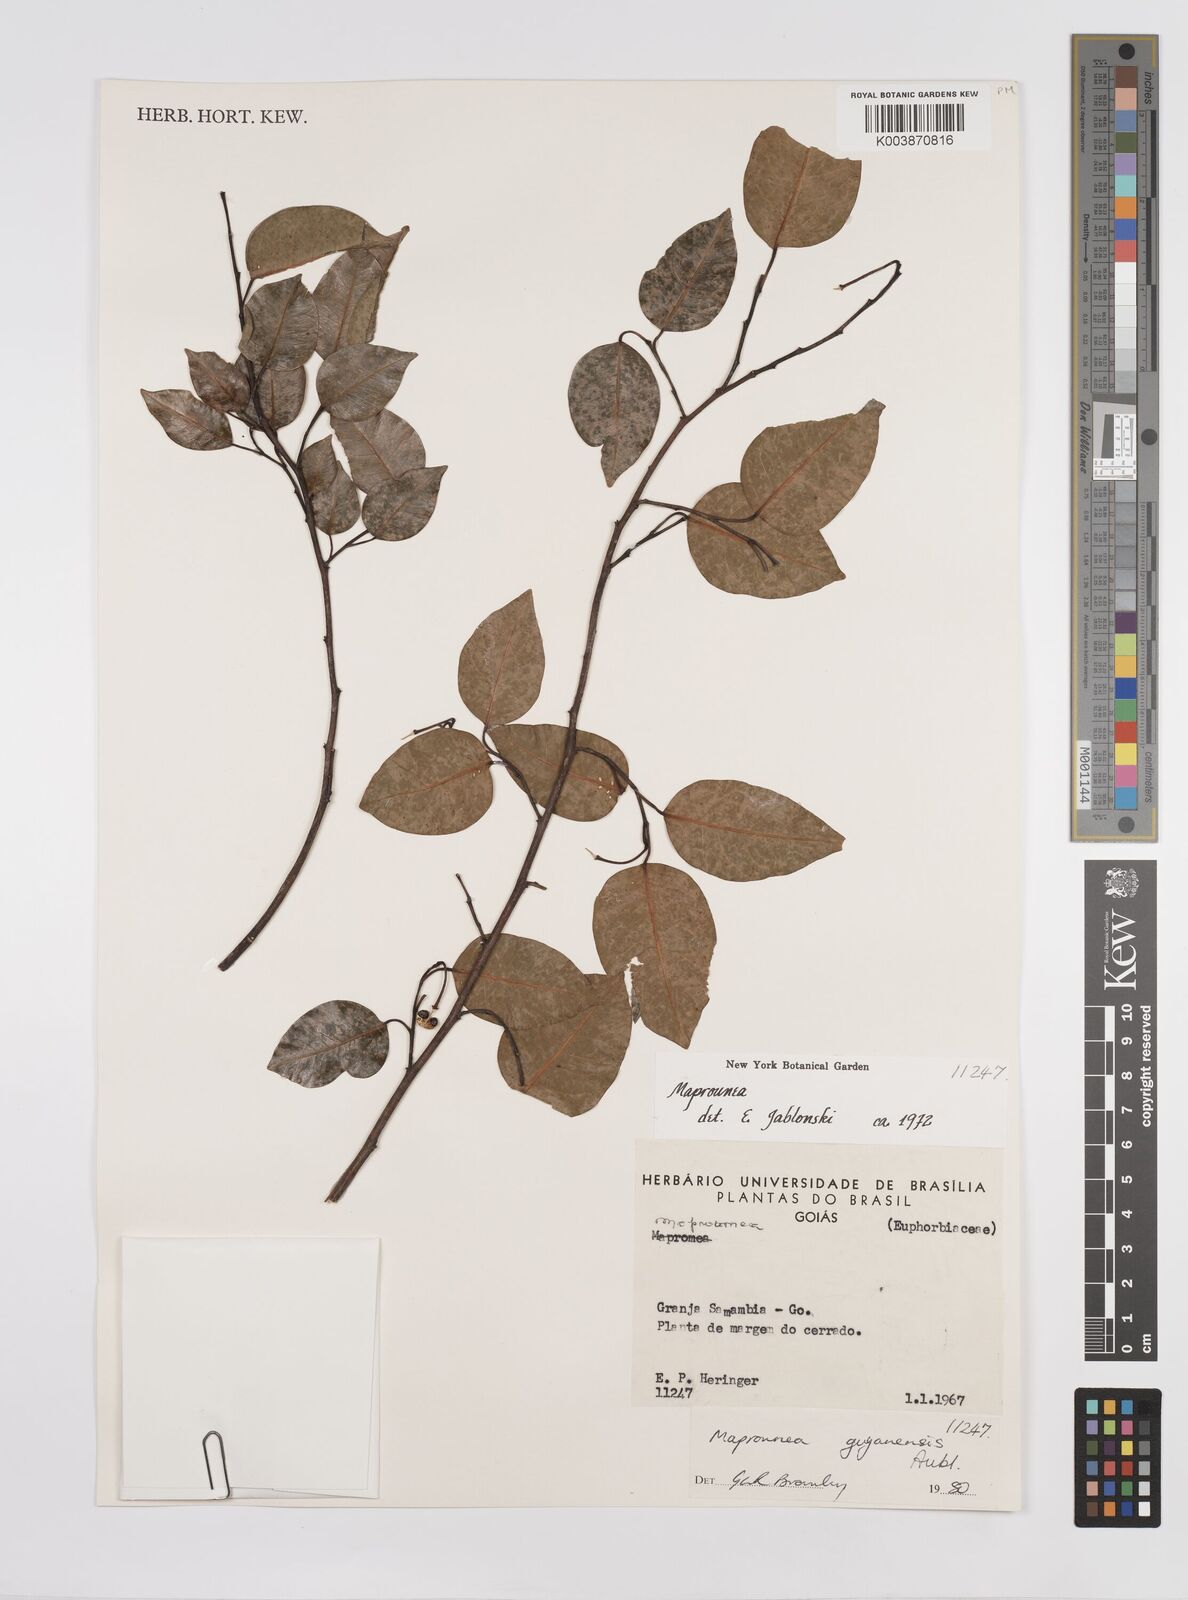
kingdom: Plantae
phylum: Tracheophyta
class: Magnoliopsida
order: Malpighiales
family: Euphorbiaceae
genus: Maprounea
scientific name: Maprounea guianensis
